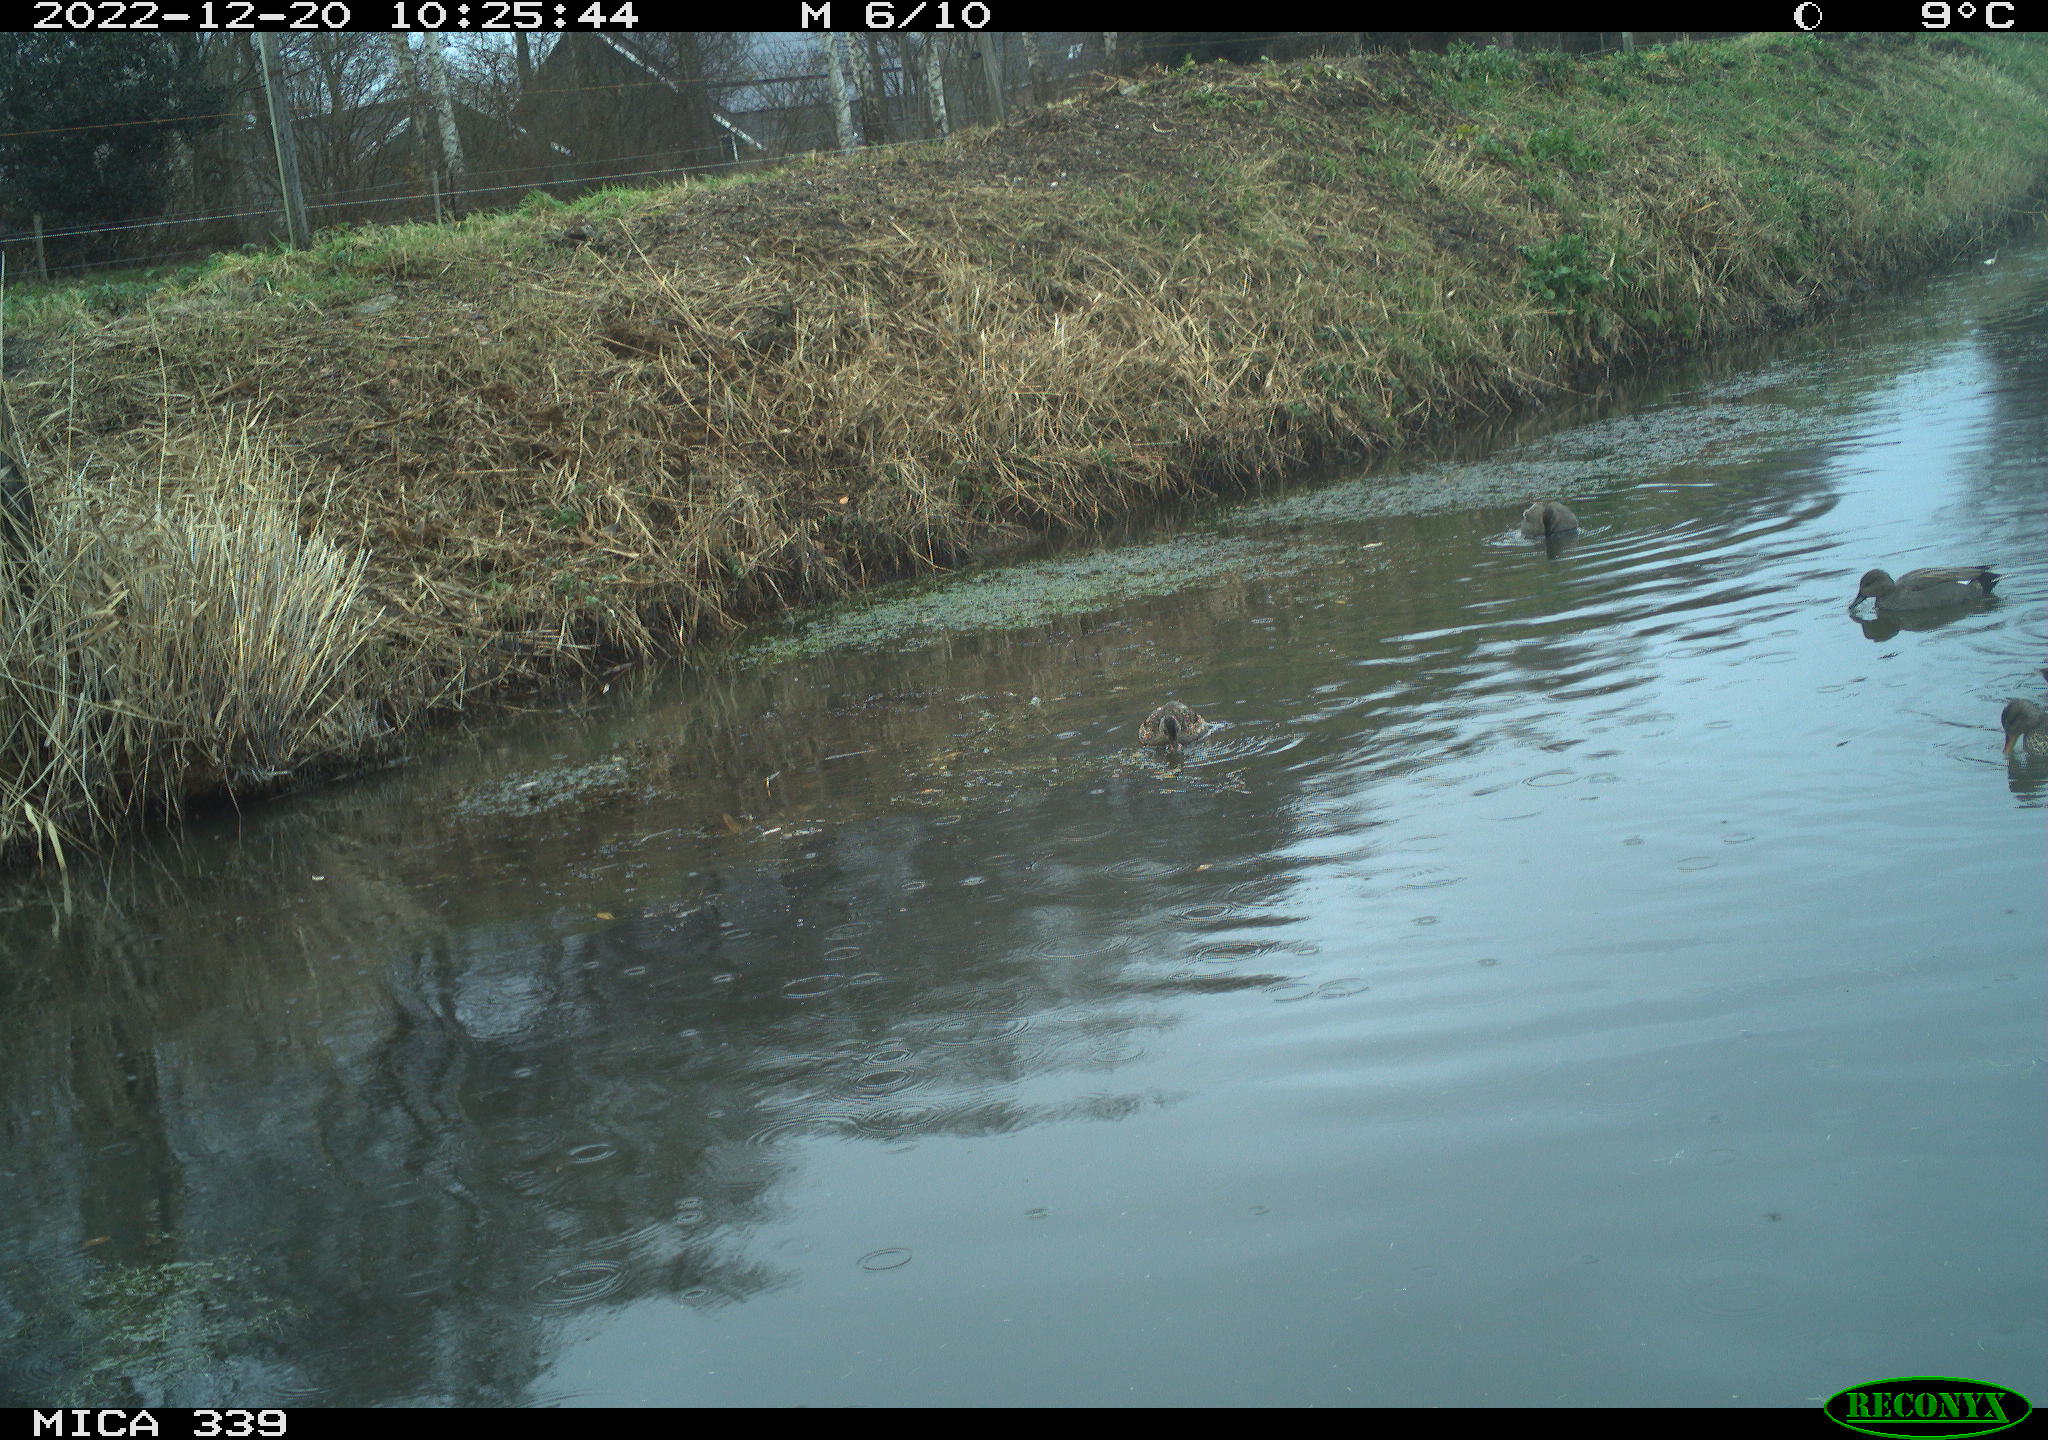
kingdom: Animalia
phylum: Chordata
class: Aves
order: Anseriformes
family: Anatidae
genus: Anas
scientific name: Anas
